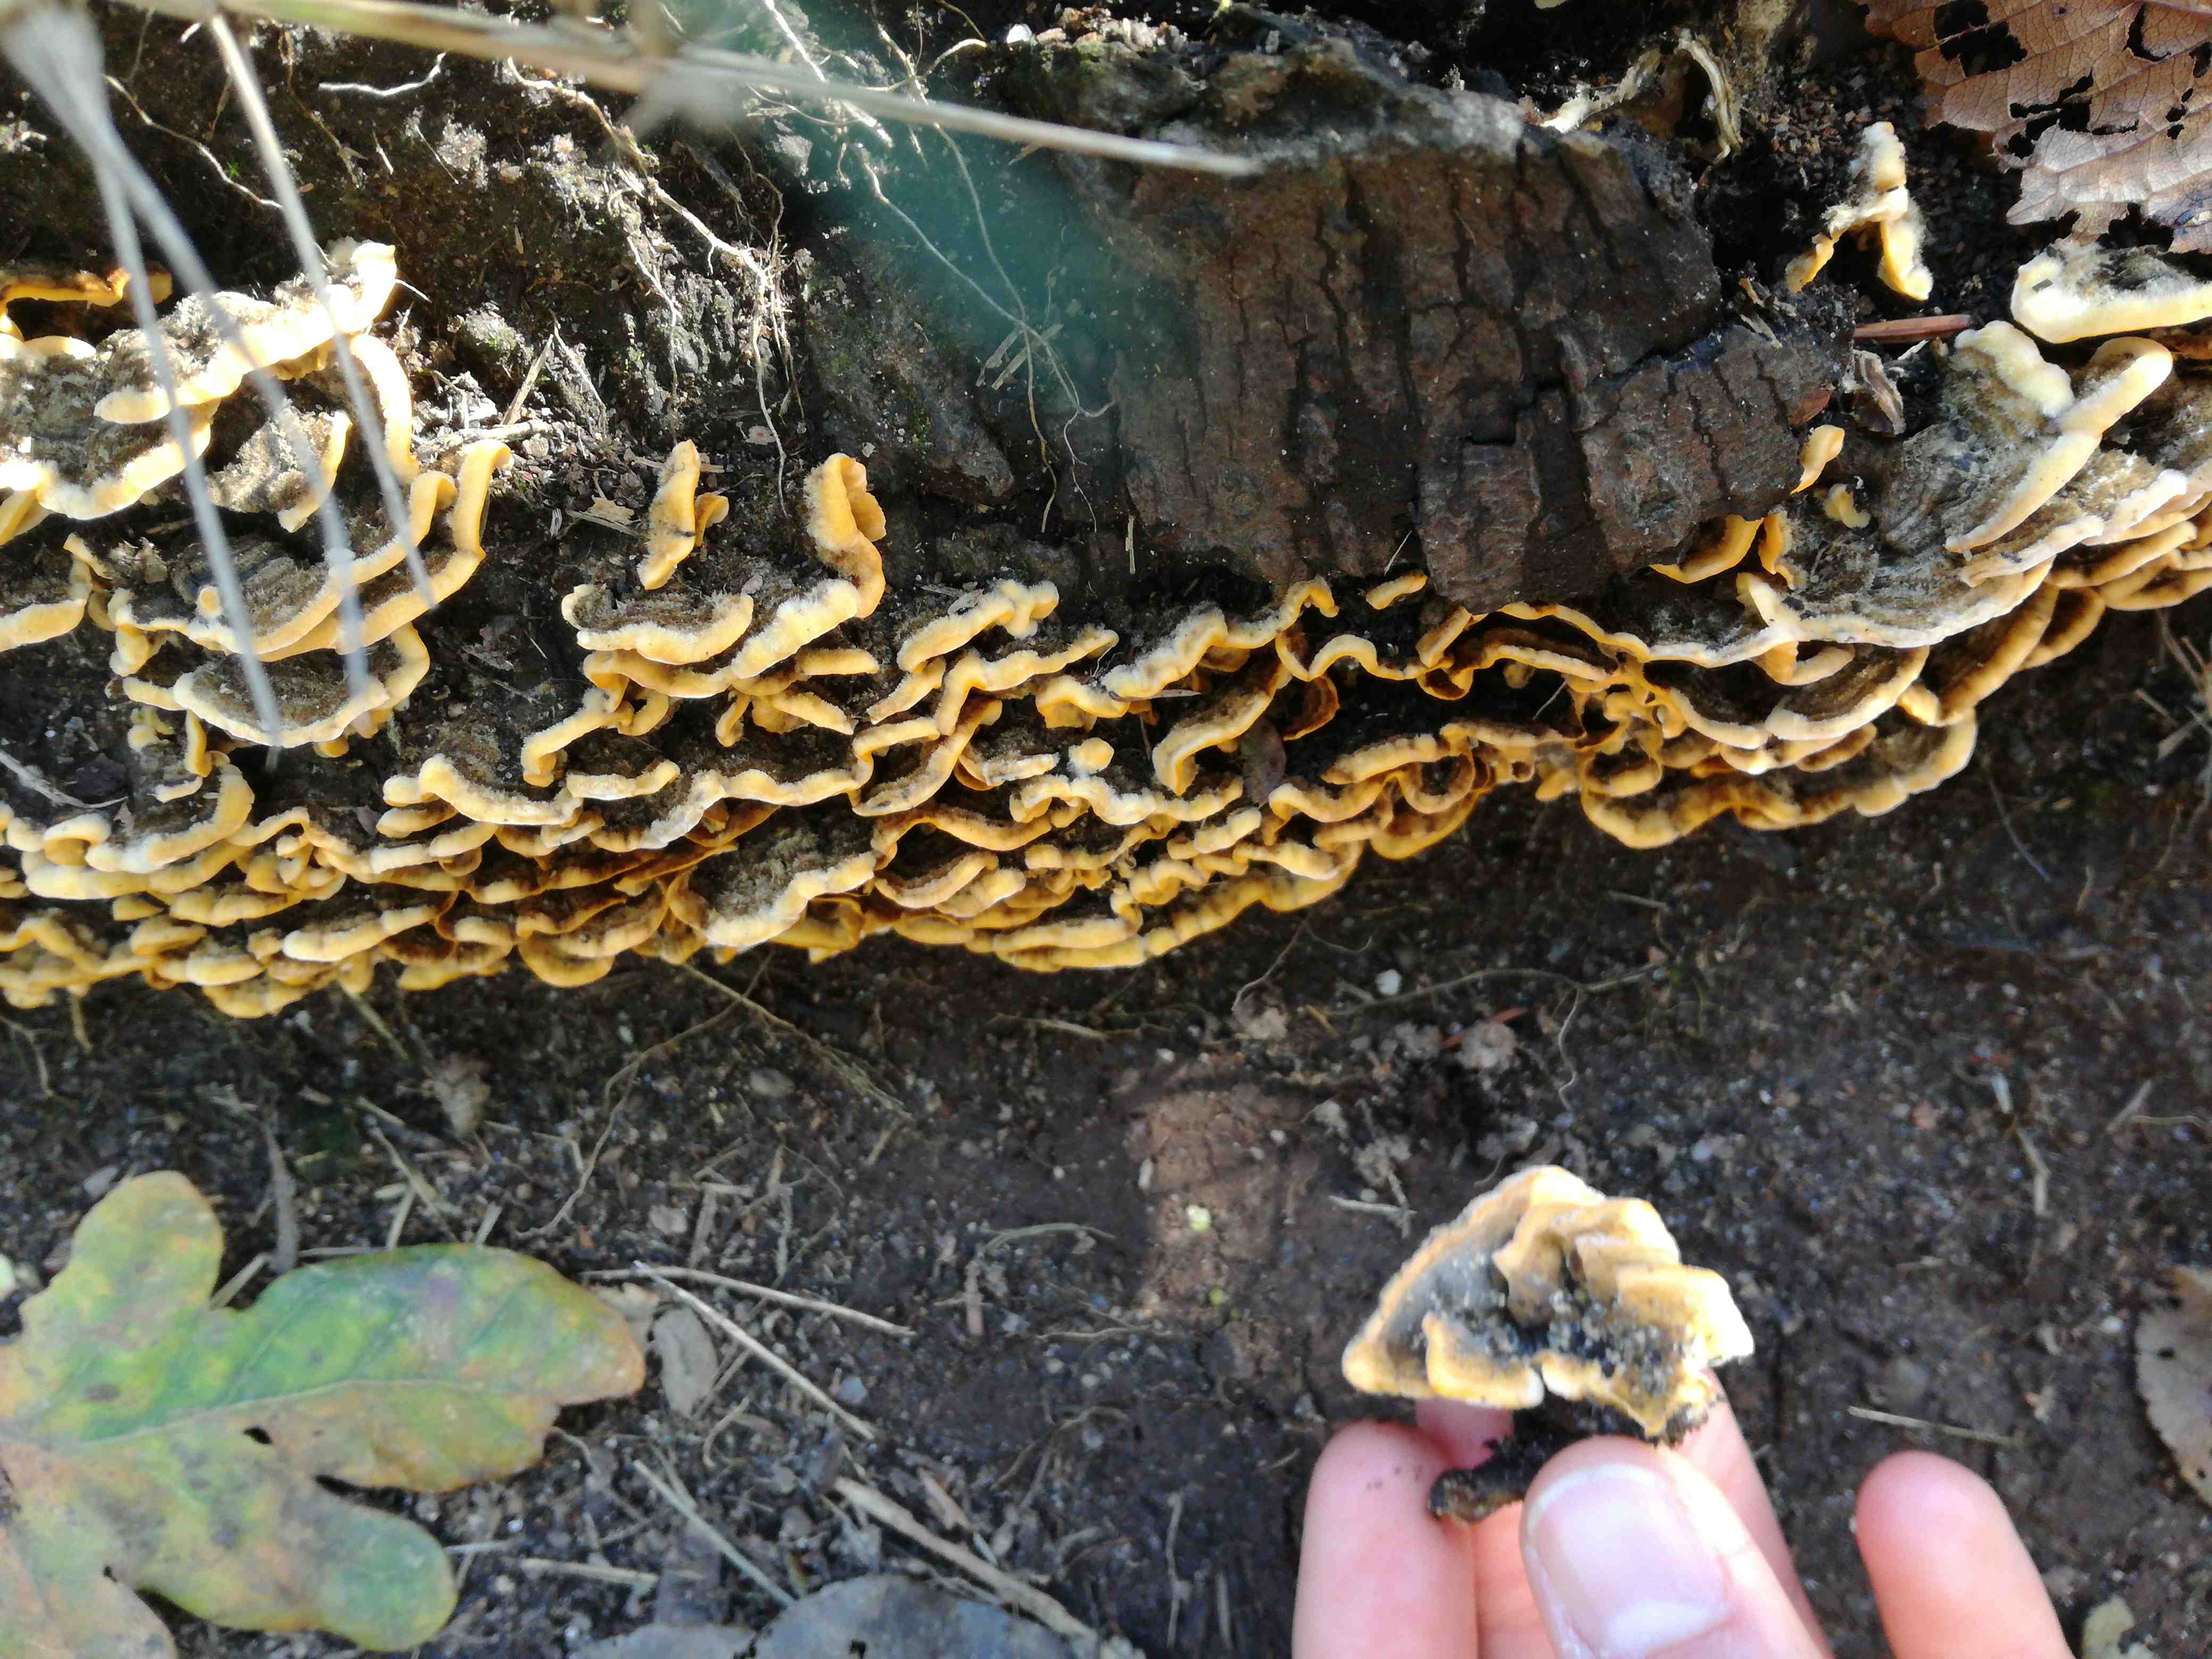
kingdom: Fungi
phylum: Basidiomycota
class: Agaricomycetes
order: Russulales
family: Stereaceae
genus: Stereum
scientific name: Stereum
